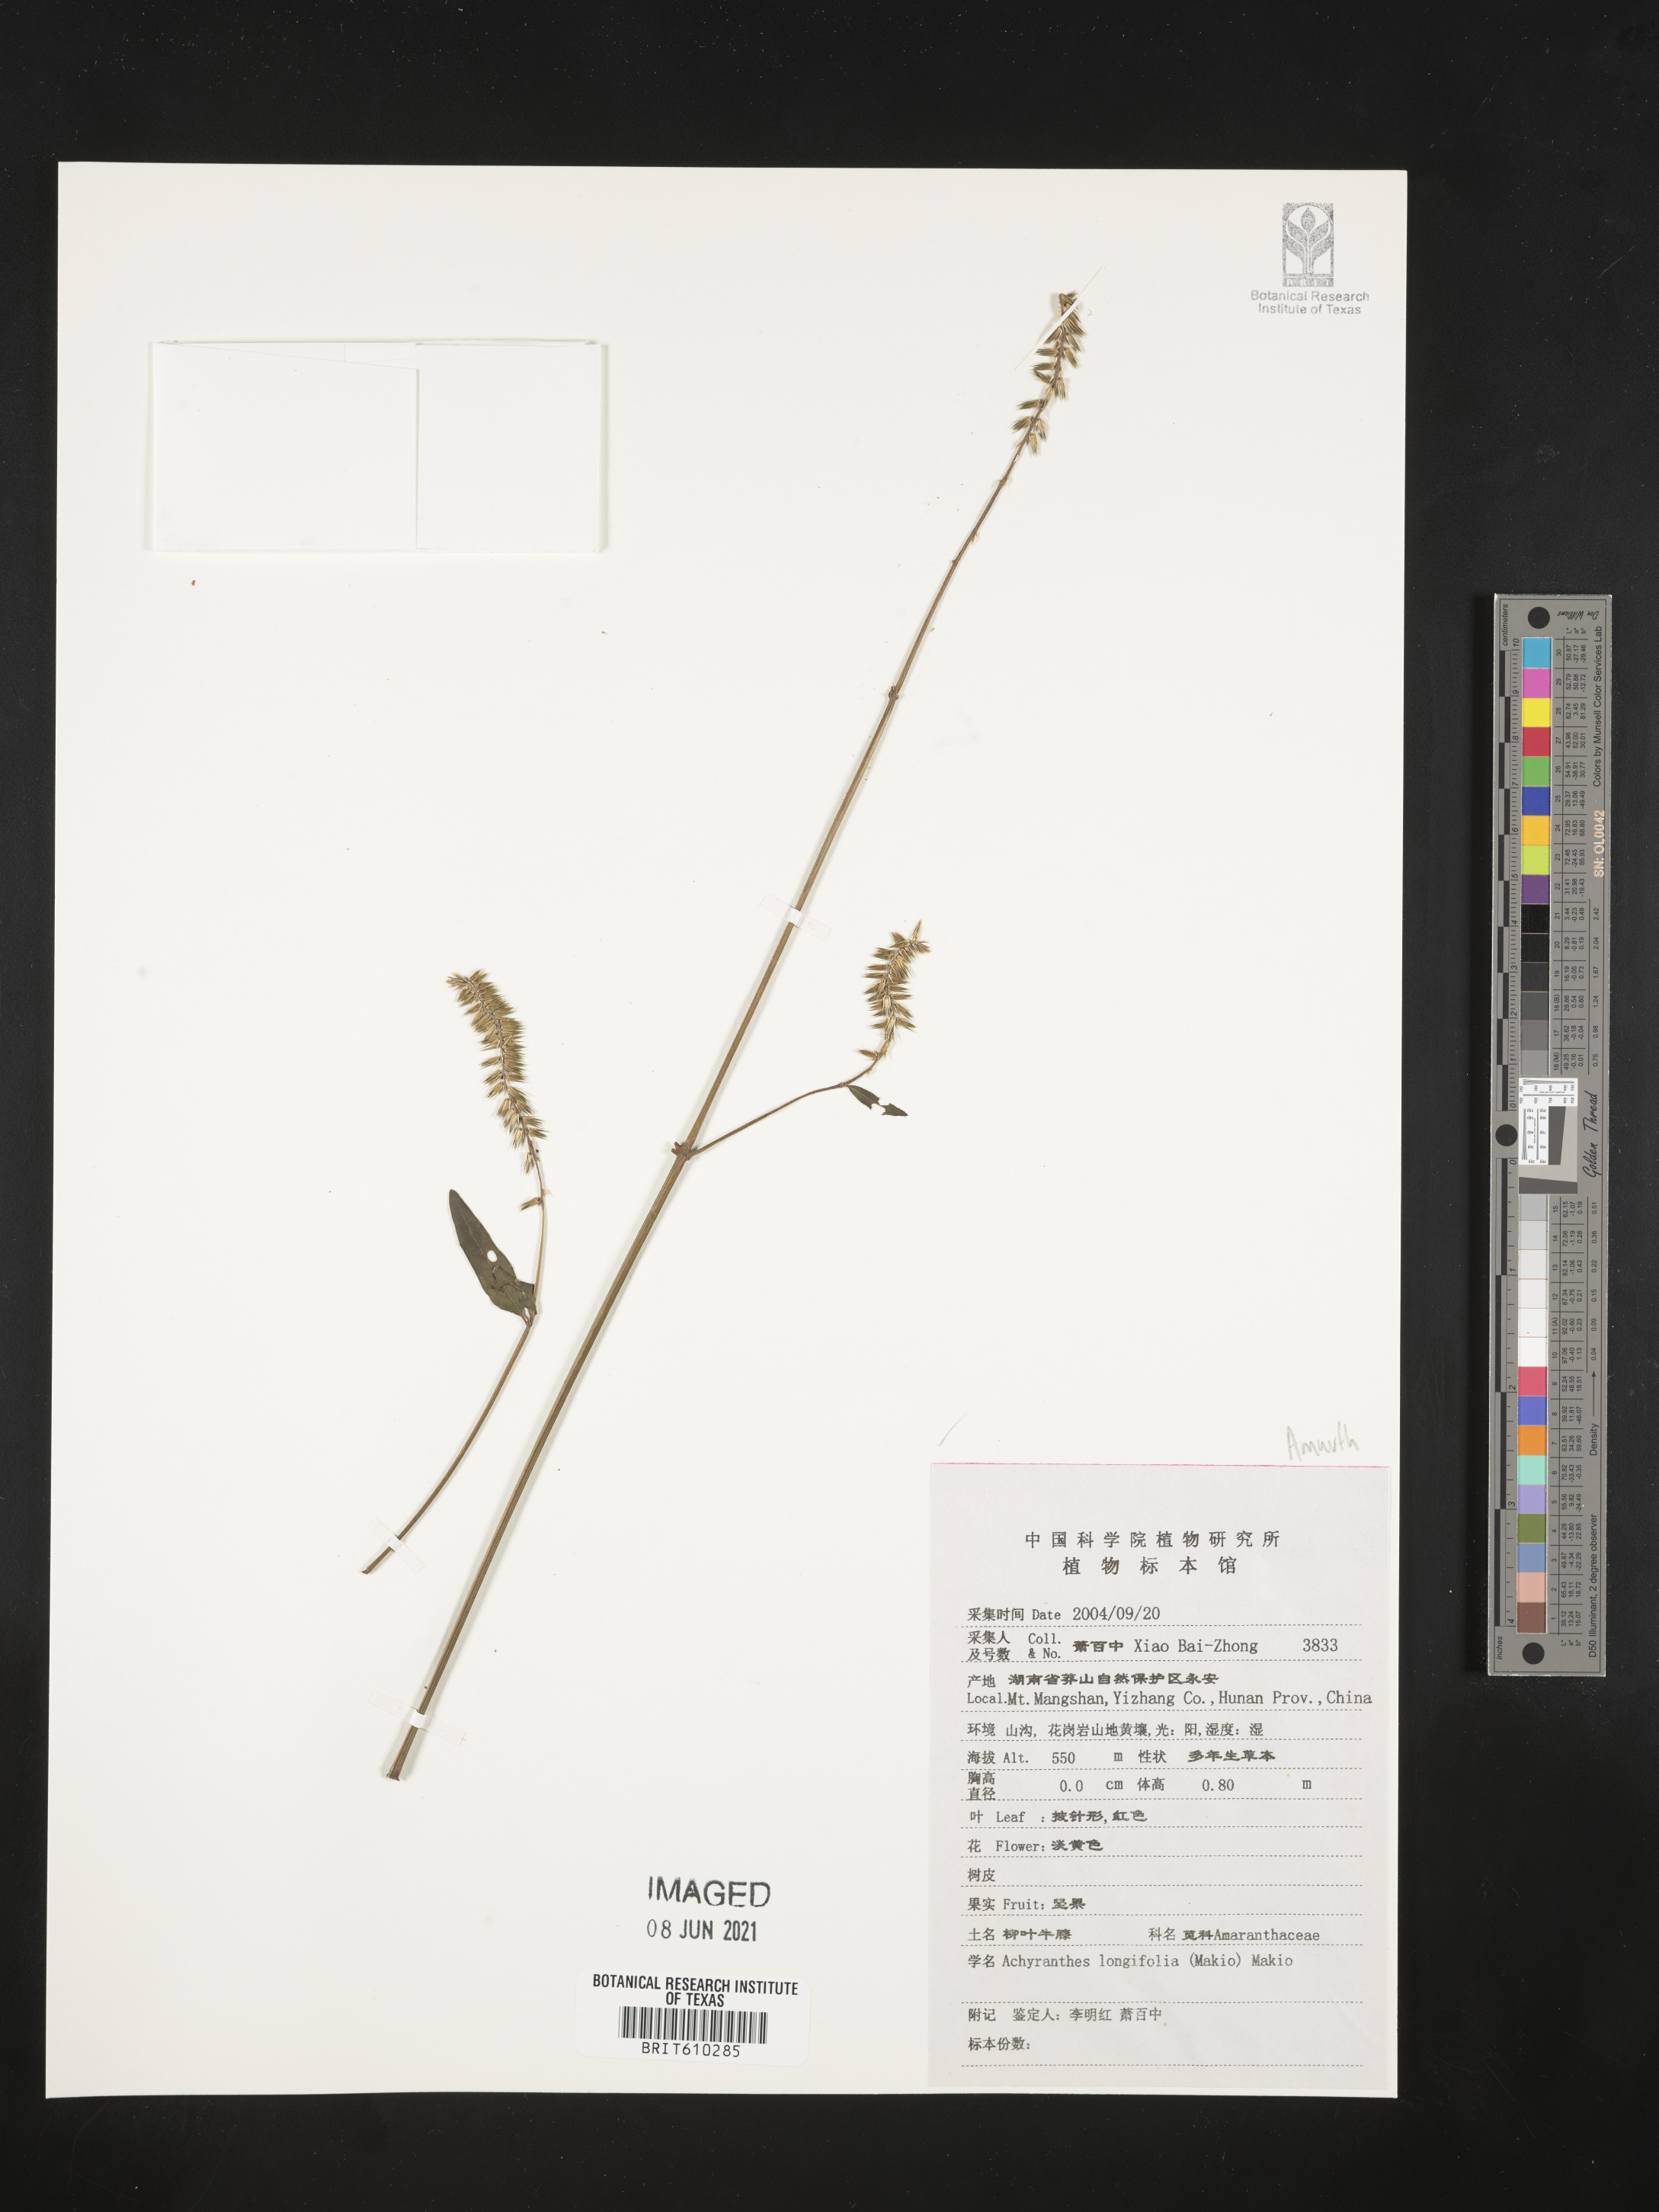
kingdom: Plantae
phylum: Tracheophyta
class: Magnoliopsida
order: Caryophyllales
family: Amaranthaceae
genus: Achyranthes
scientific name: Achyranthes bidentata
